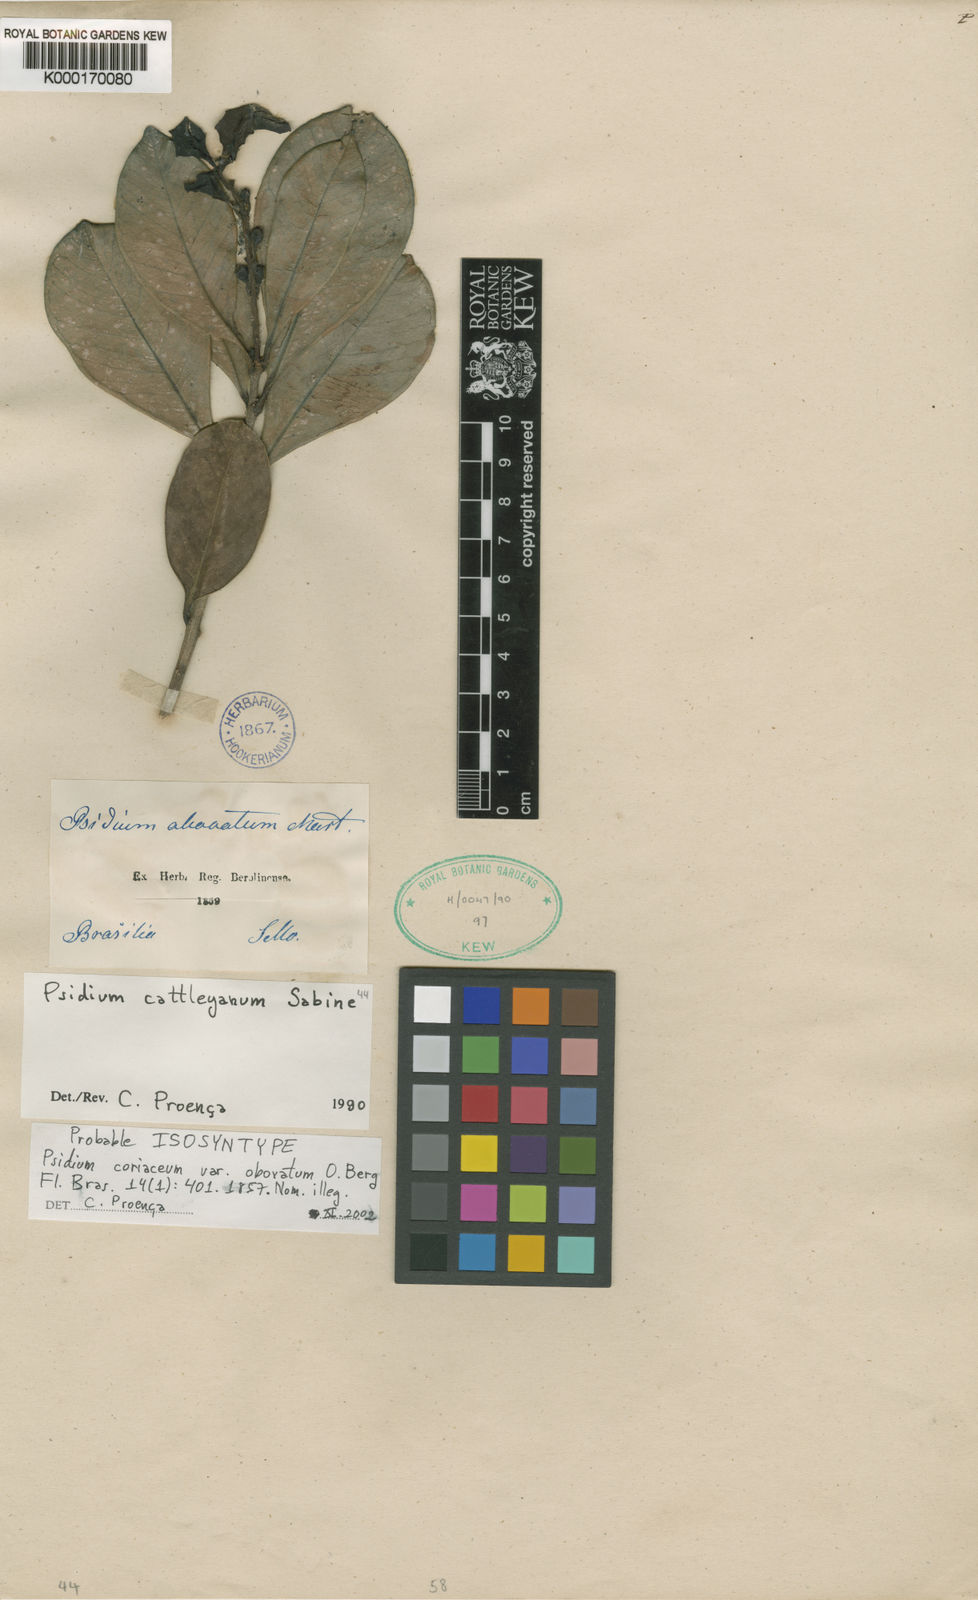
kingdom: Plantae
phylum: Tracheophyta
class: Magnoliopsida
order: Myrtales
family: Myrtaceae
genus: Psidium
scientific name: Psidium
